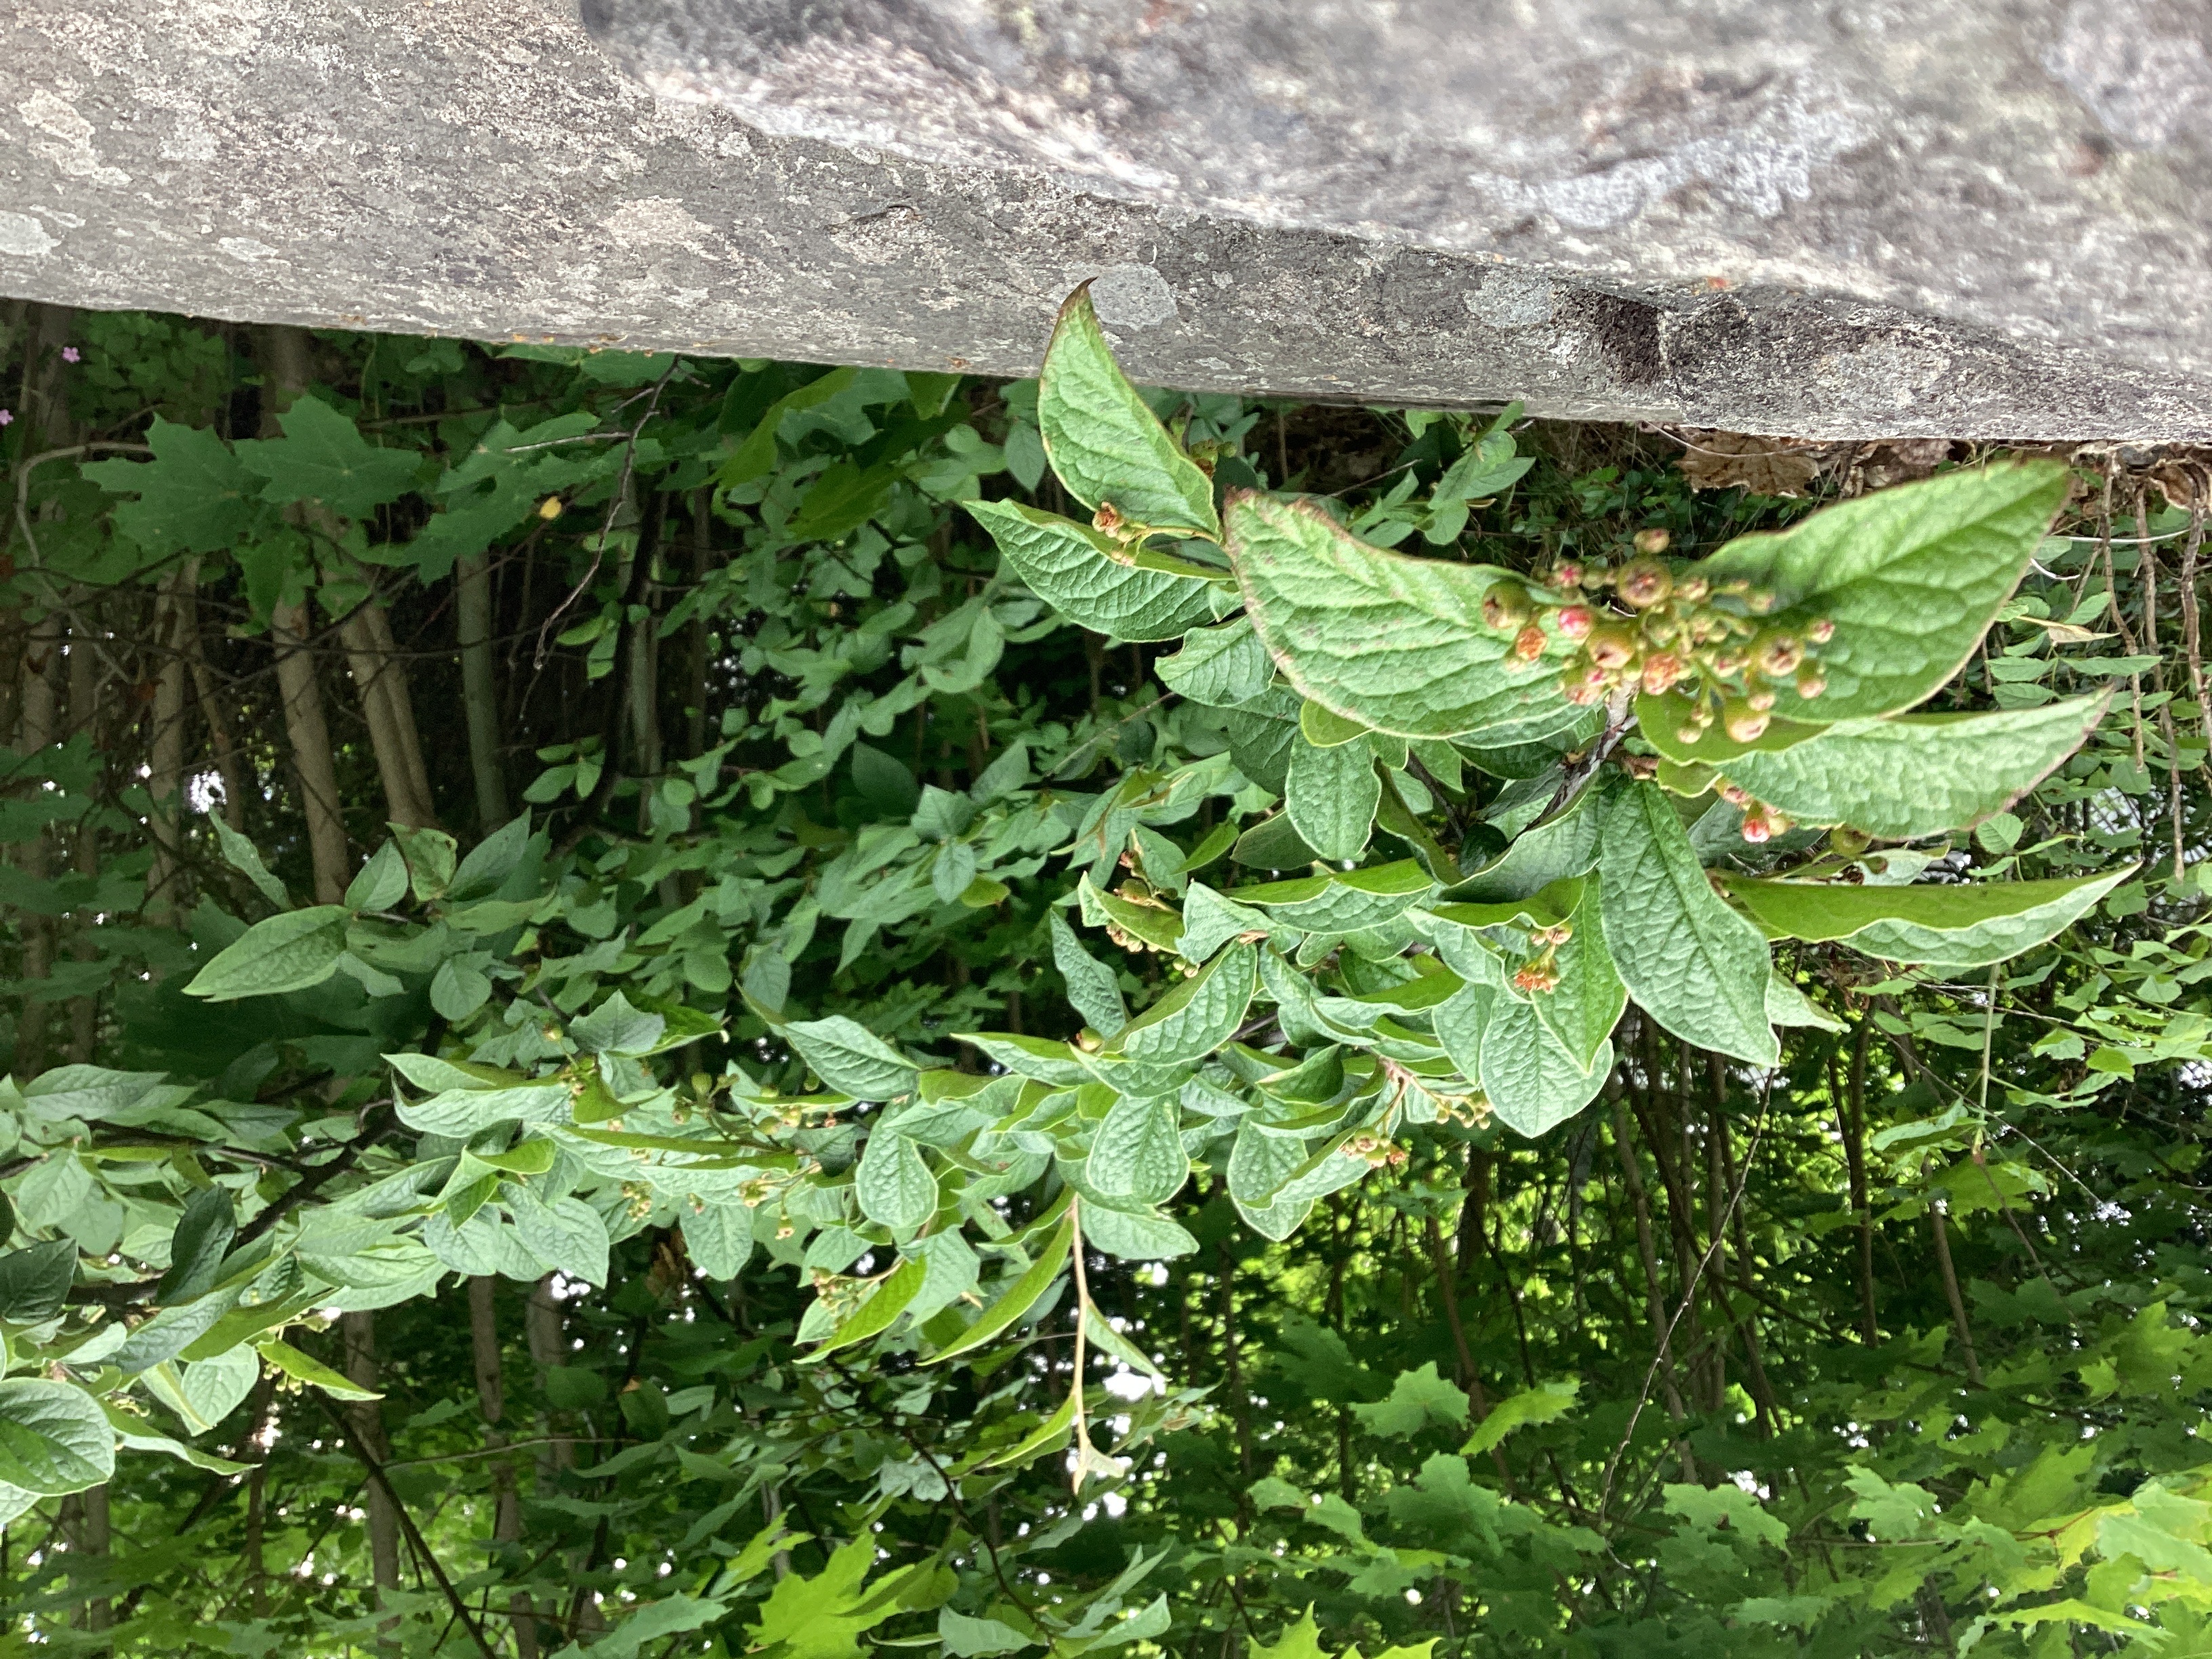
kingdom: Plantae
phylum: Tracheophyta
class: Magnoliopsida
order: Rosales
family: Rosaceae
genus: Cotoneaster
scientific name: Cotoneaster bullatus
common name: bulkemispel
